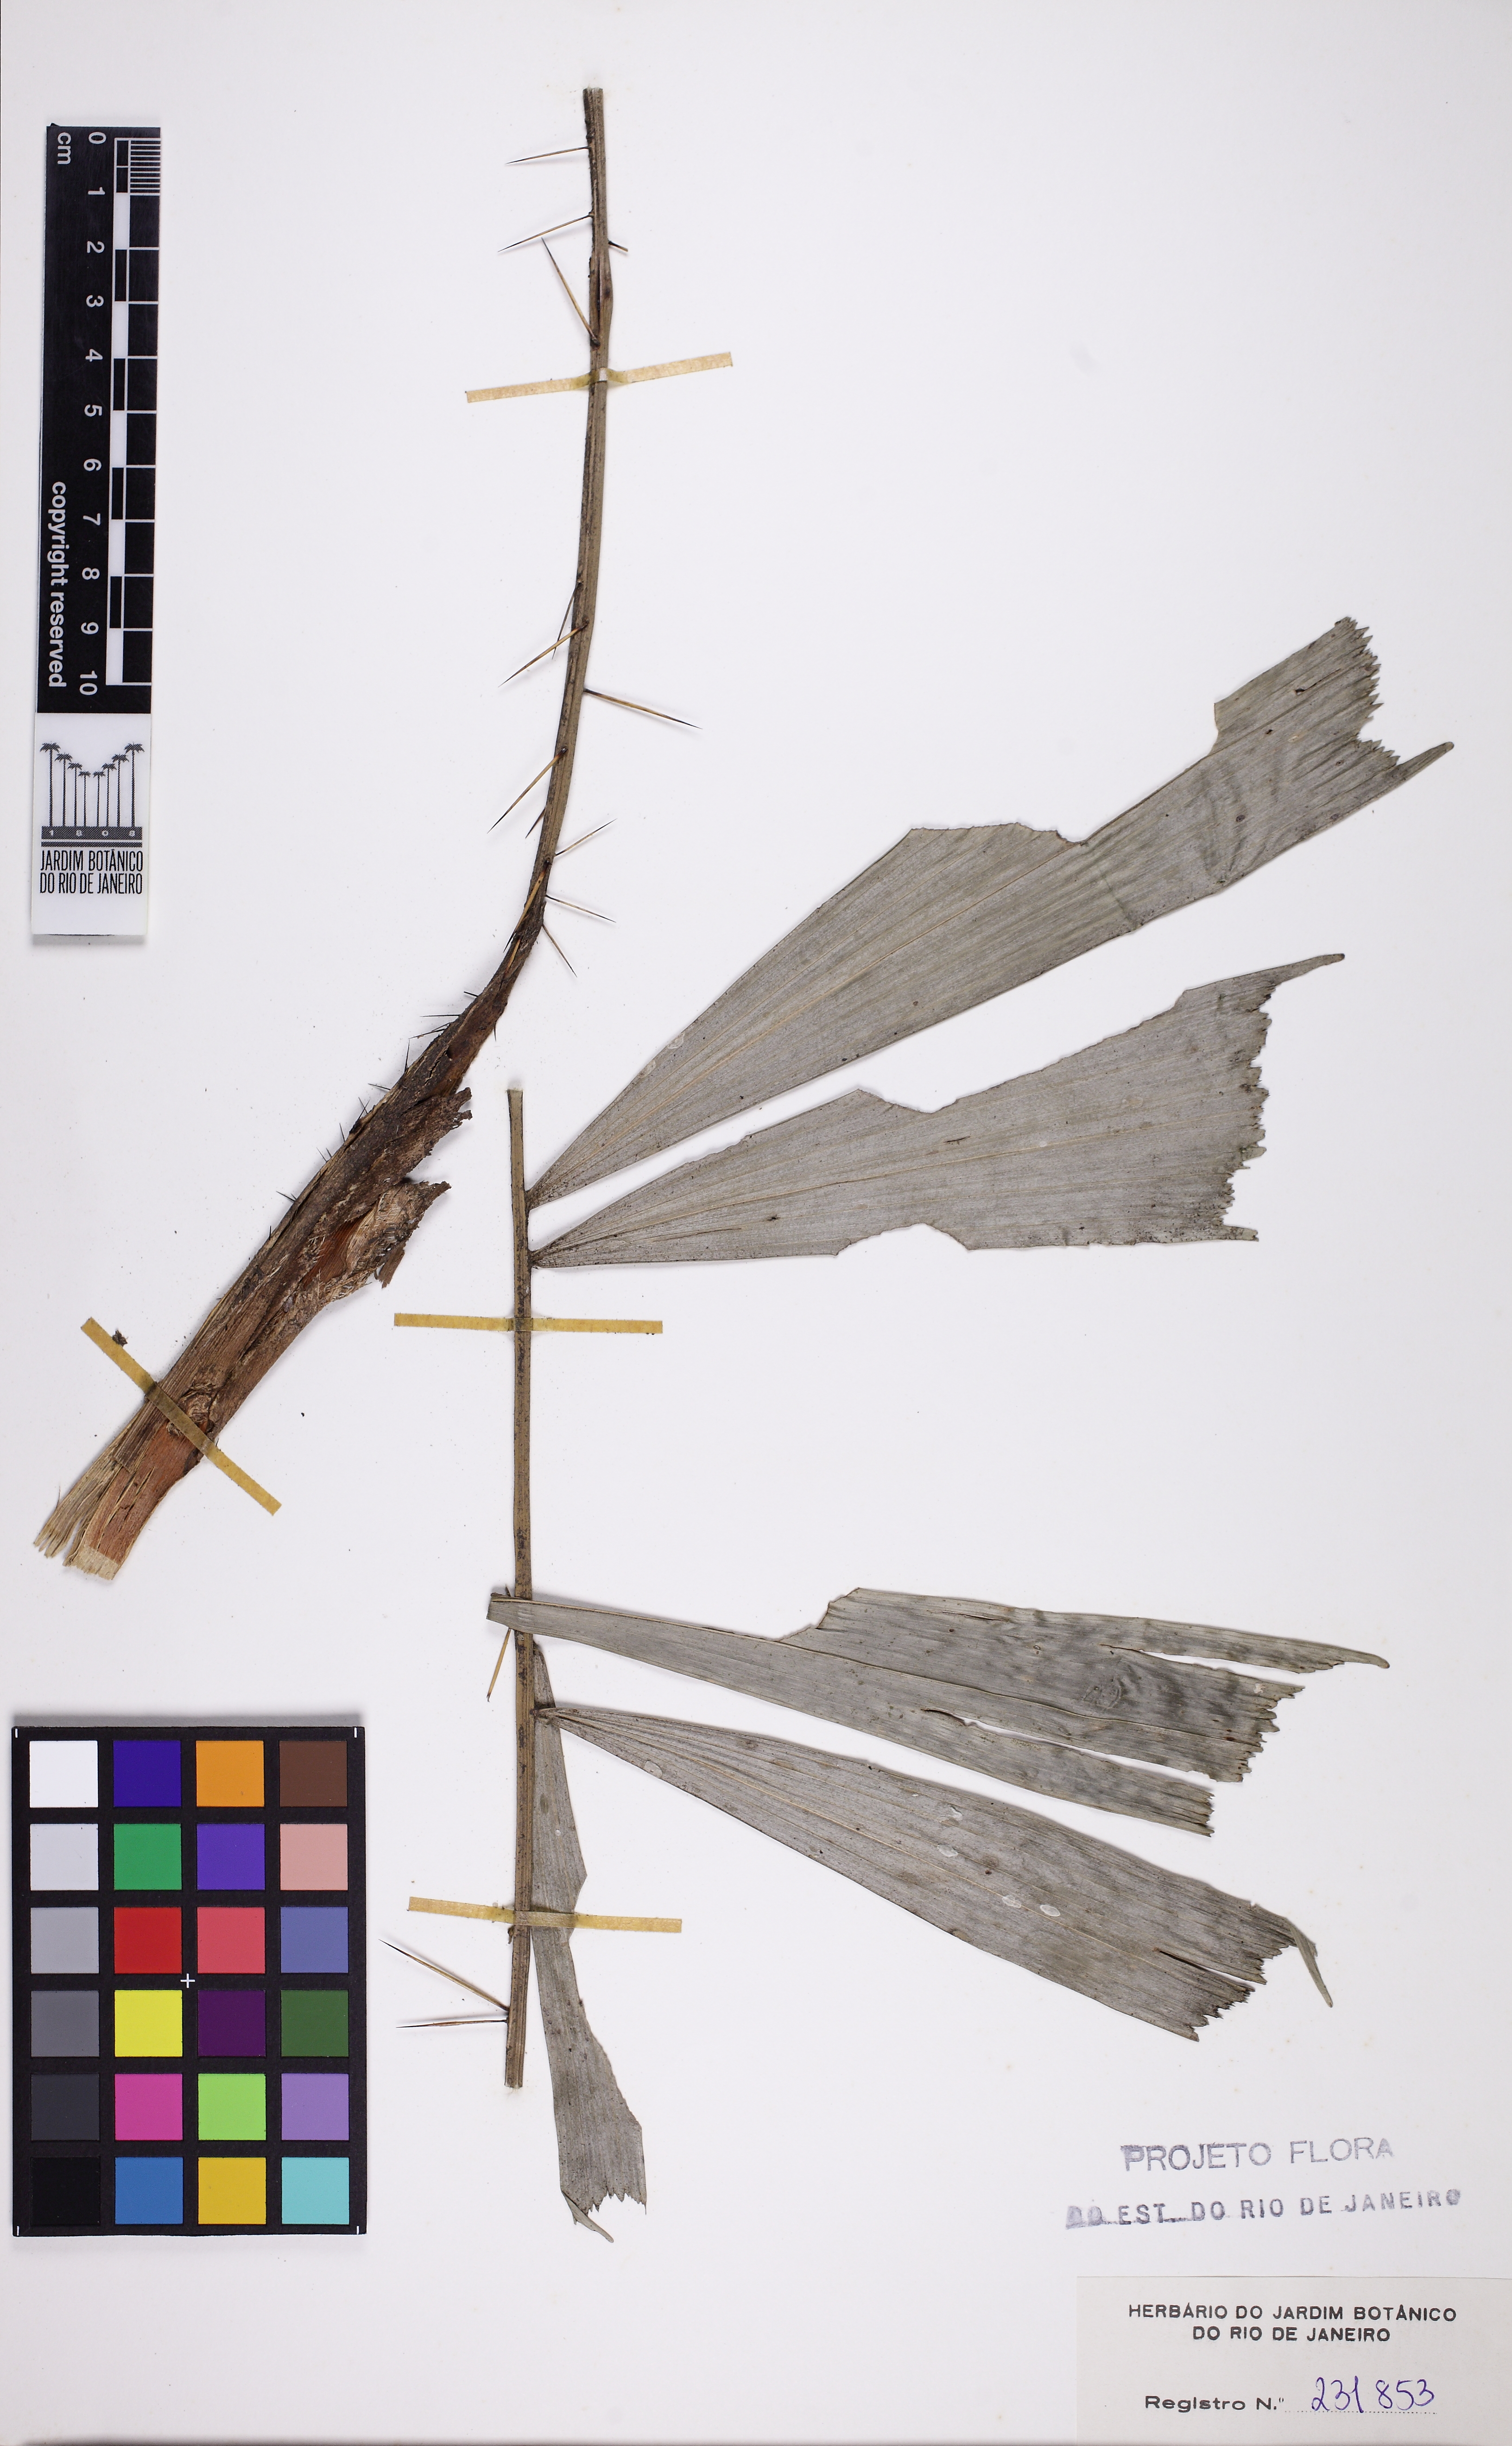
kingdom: Plantae
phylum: Tracheophyta
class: Liliopsida
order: Arecales
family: Arecaceae
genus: Bactris
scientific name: Bactris caryotifolia
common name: Caryota-leaf peach palm
